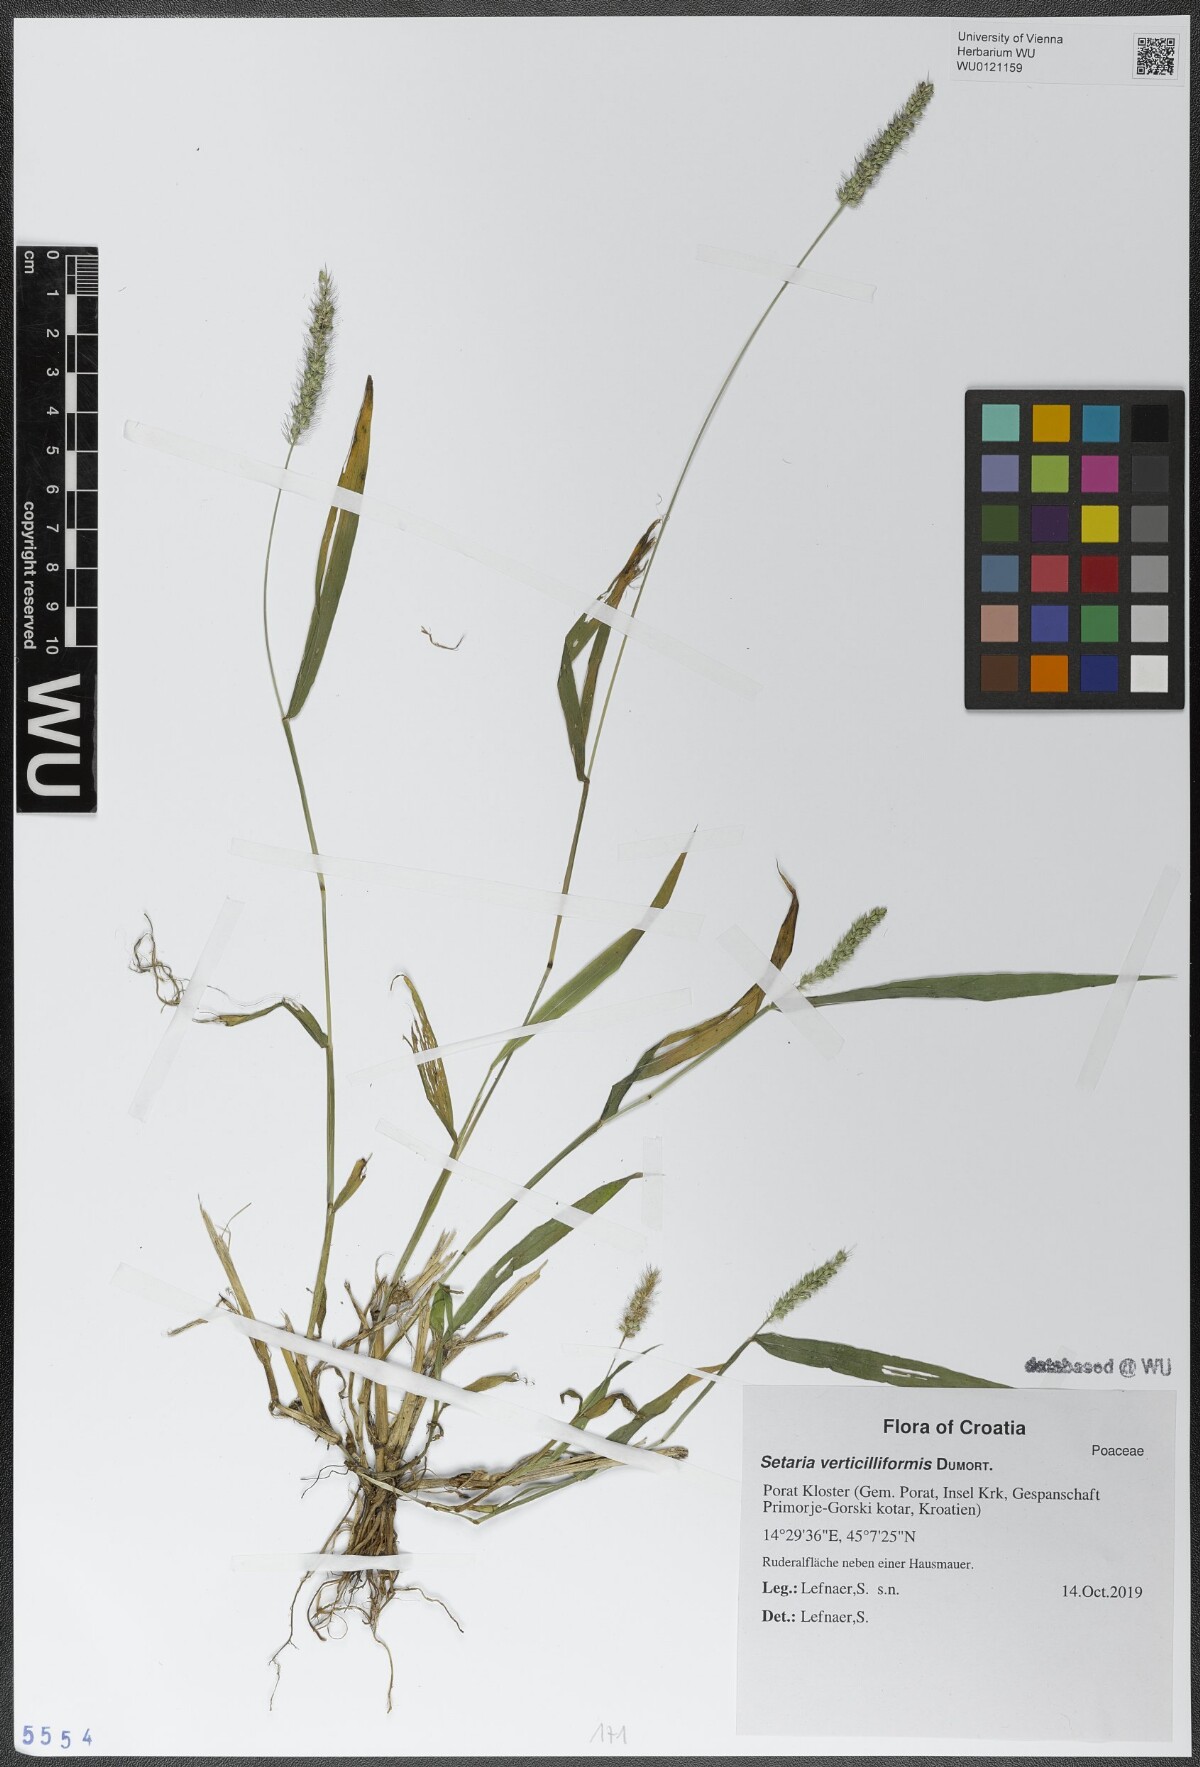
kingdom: Plantae
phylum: Tracheophyta
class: Liliopsida
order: Poales
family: Poaceae
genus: Setaria
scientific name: Setaria verticillata
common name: Hooked bristlegrass
